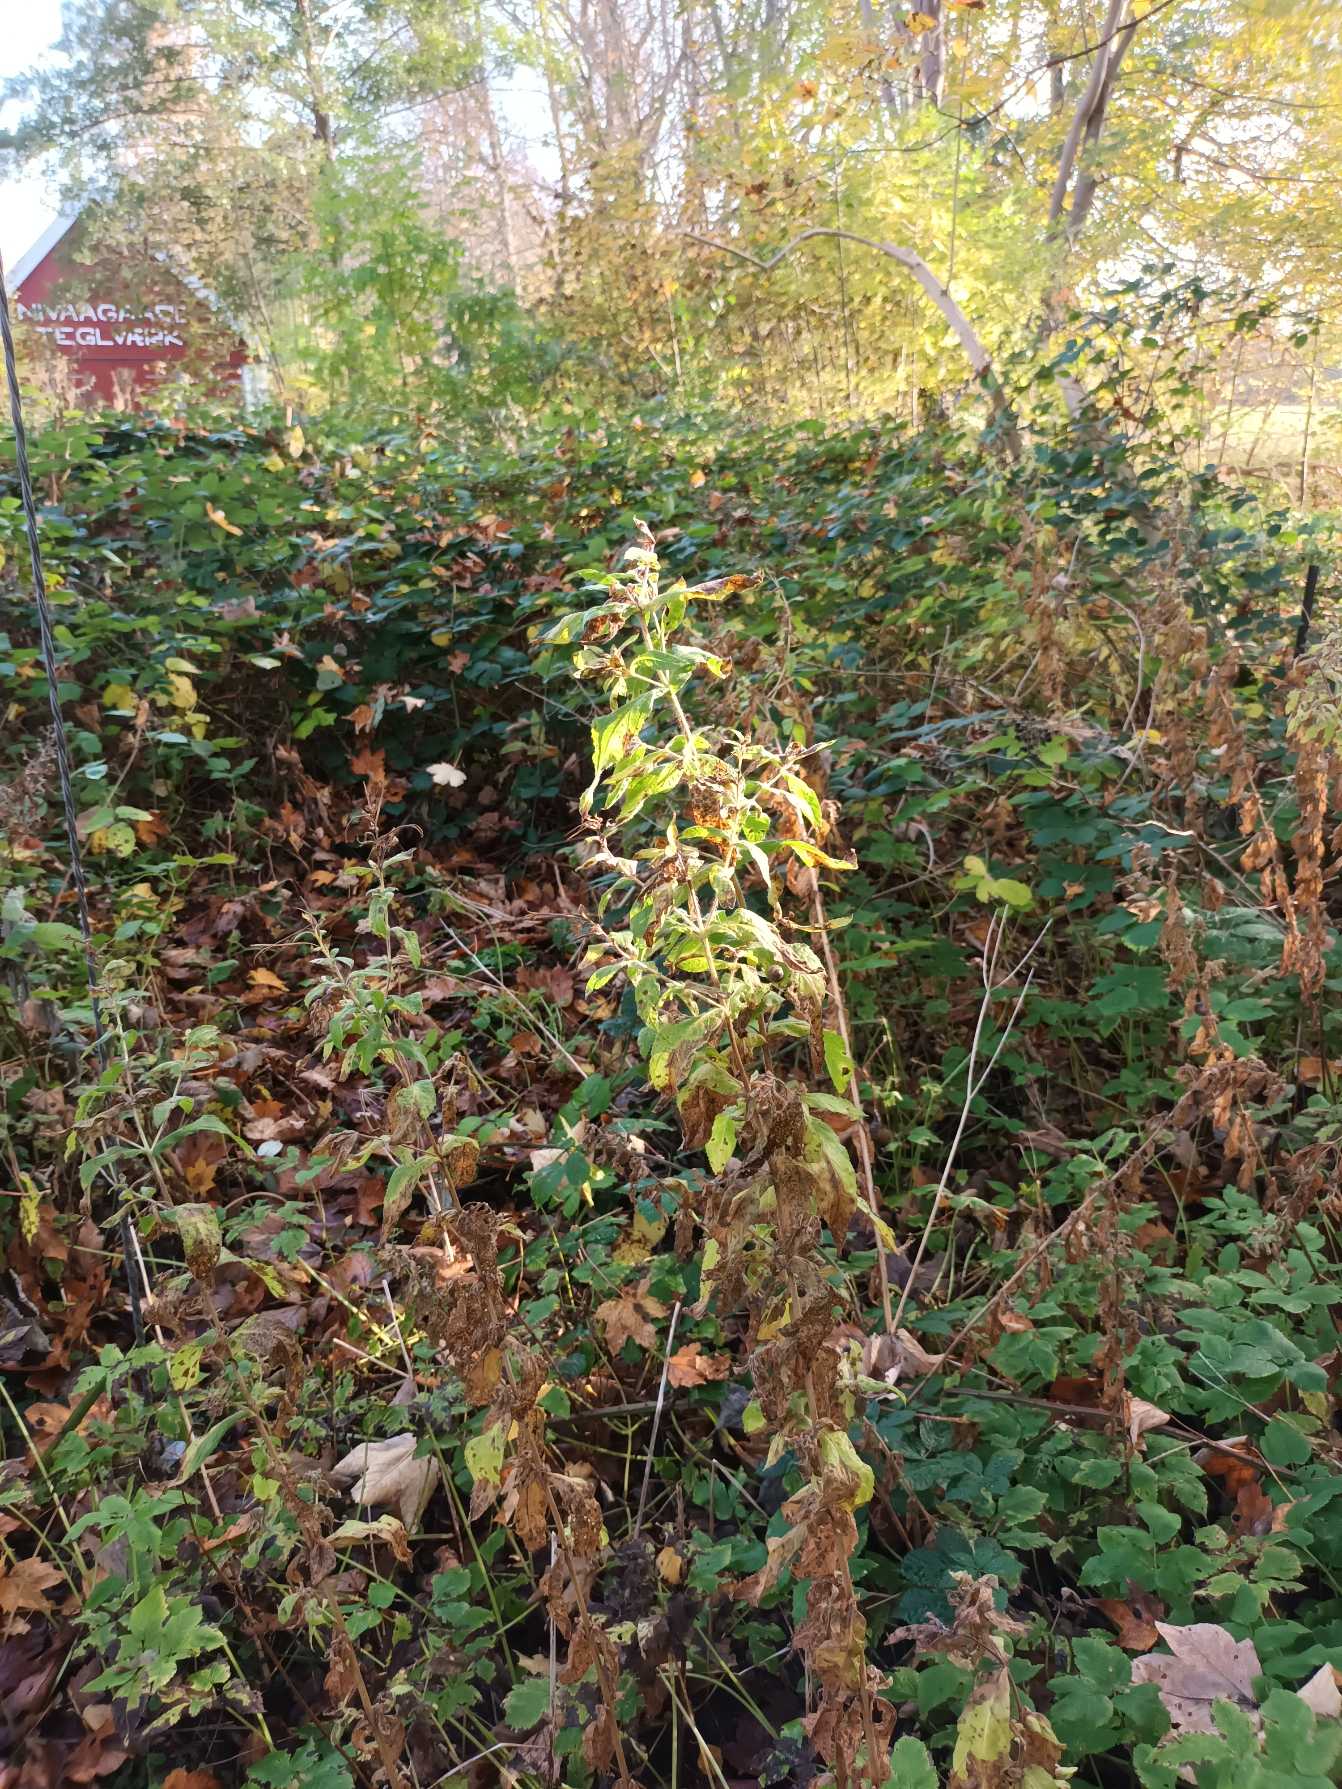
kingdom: Plantae
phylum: Tracheophyta
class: Magnoliopsida
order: Myrtales
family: Onagraceae
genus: Epilobium
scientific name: Epilobium hirsutum
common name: Lådden dueurt
